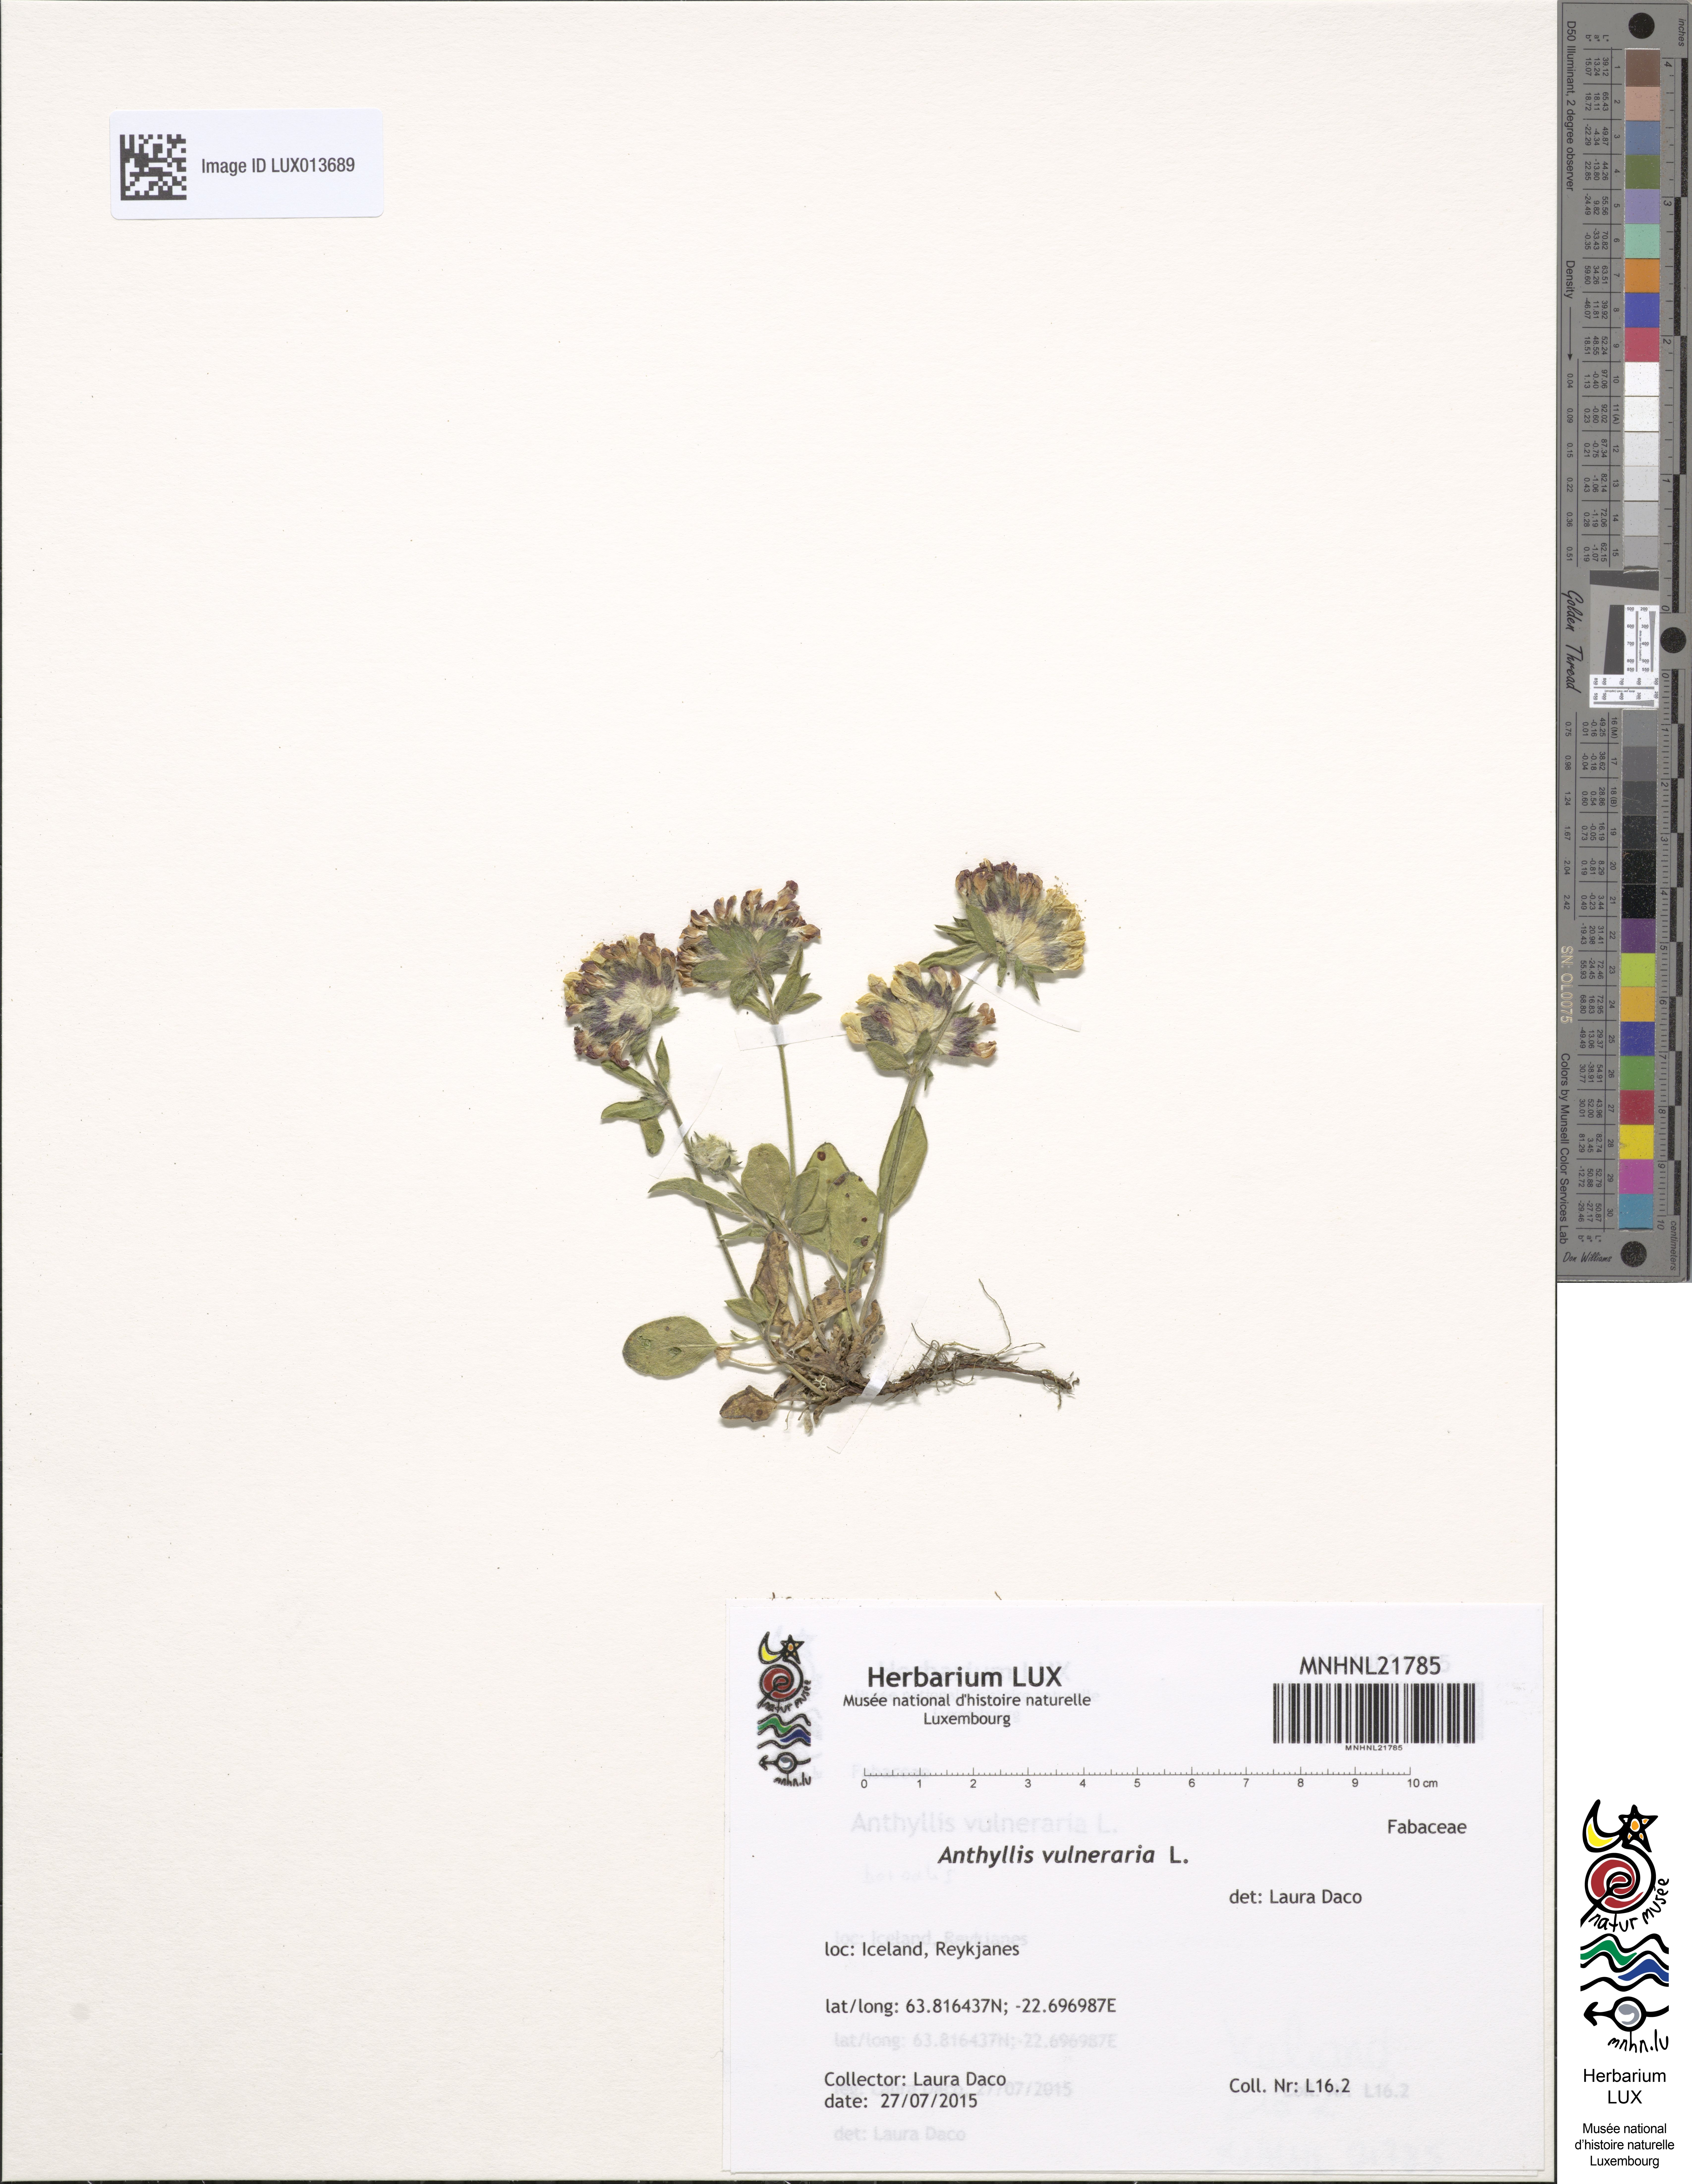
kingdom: Plantae
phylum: Tracheophyta
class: Magnoliopsida
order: Fabales
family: Fabaceae
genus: Anthyllis
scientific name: Anthyllis vulneraria
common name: Kidney vetch
